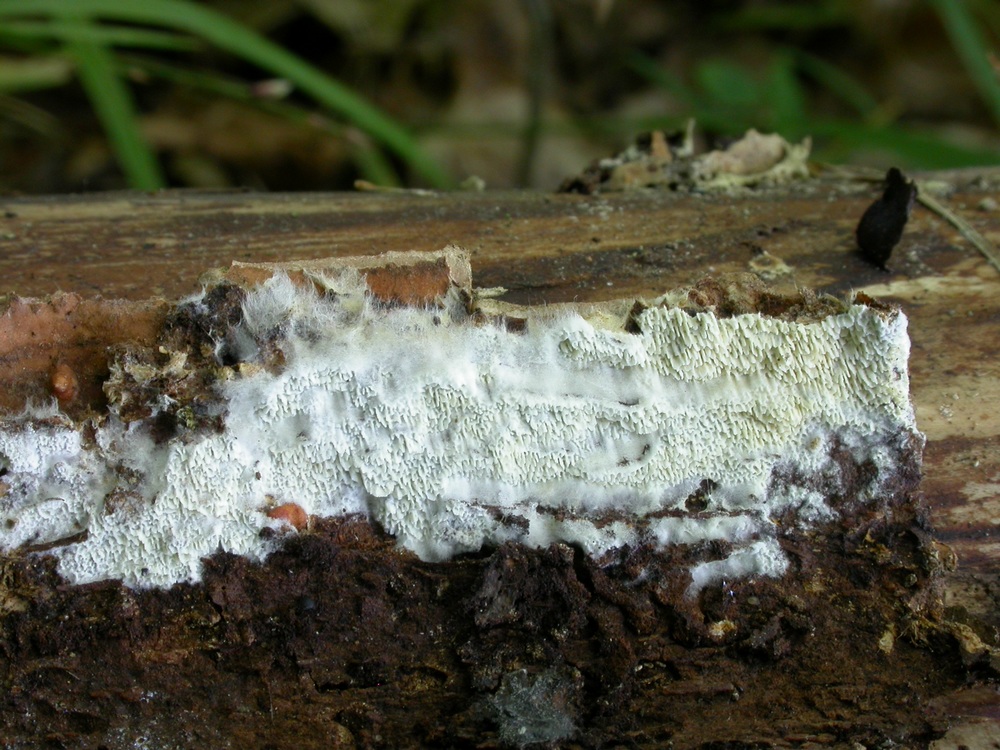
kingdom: Fungi
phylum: Basidiomycota
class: Agaricomycetes
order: Hymenochaetales
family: Schizoporaceae
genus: Xylodon
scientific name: Xylodon subtropicus
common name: labyrint-tandsvamp
